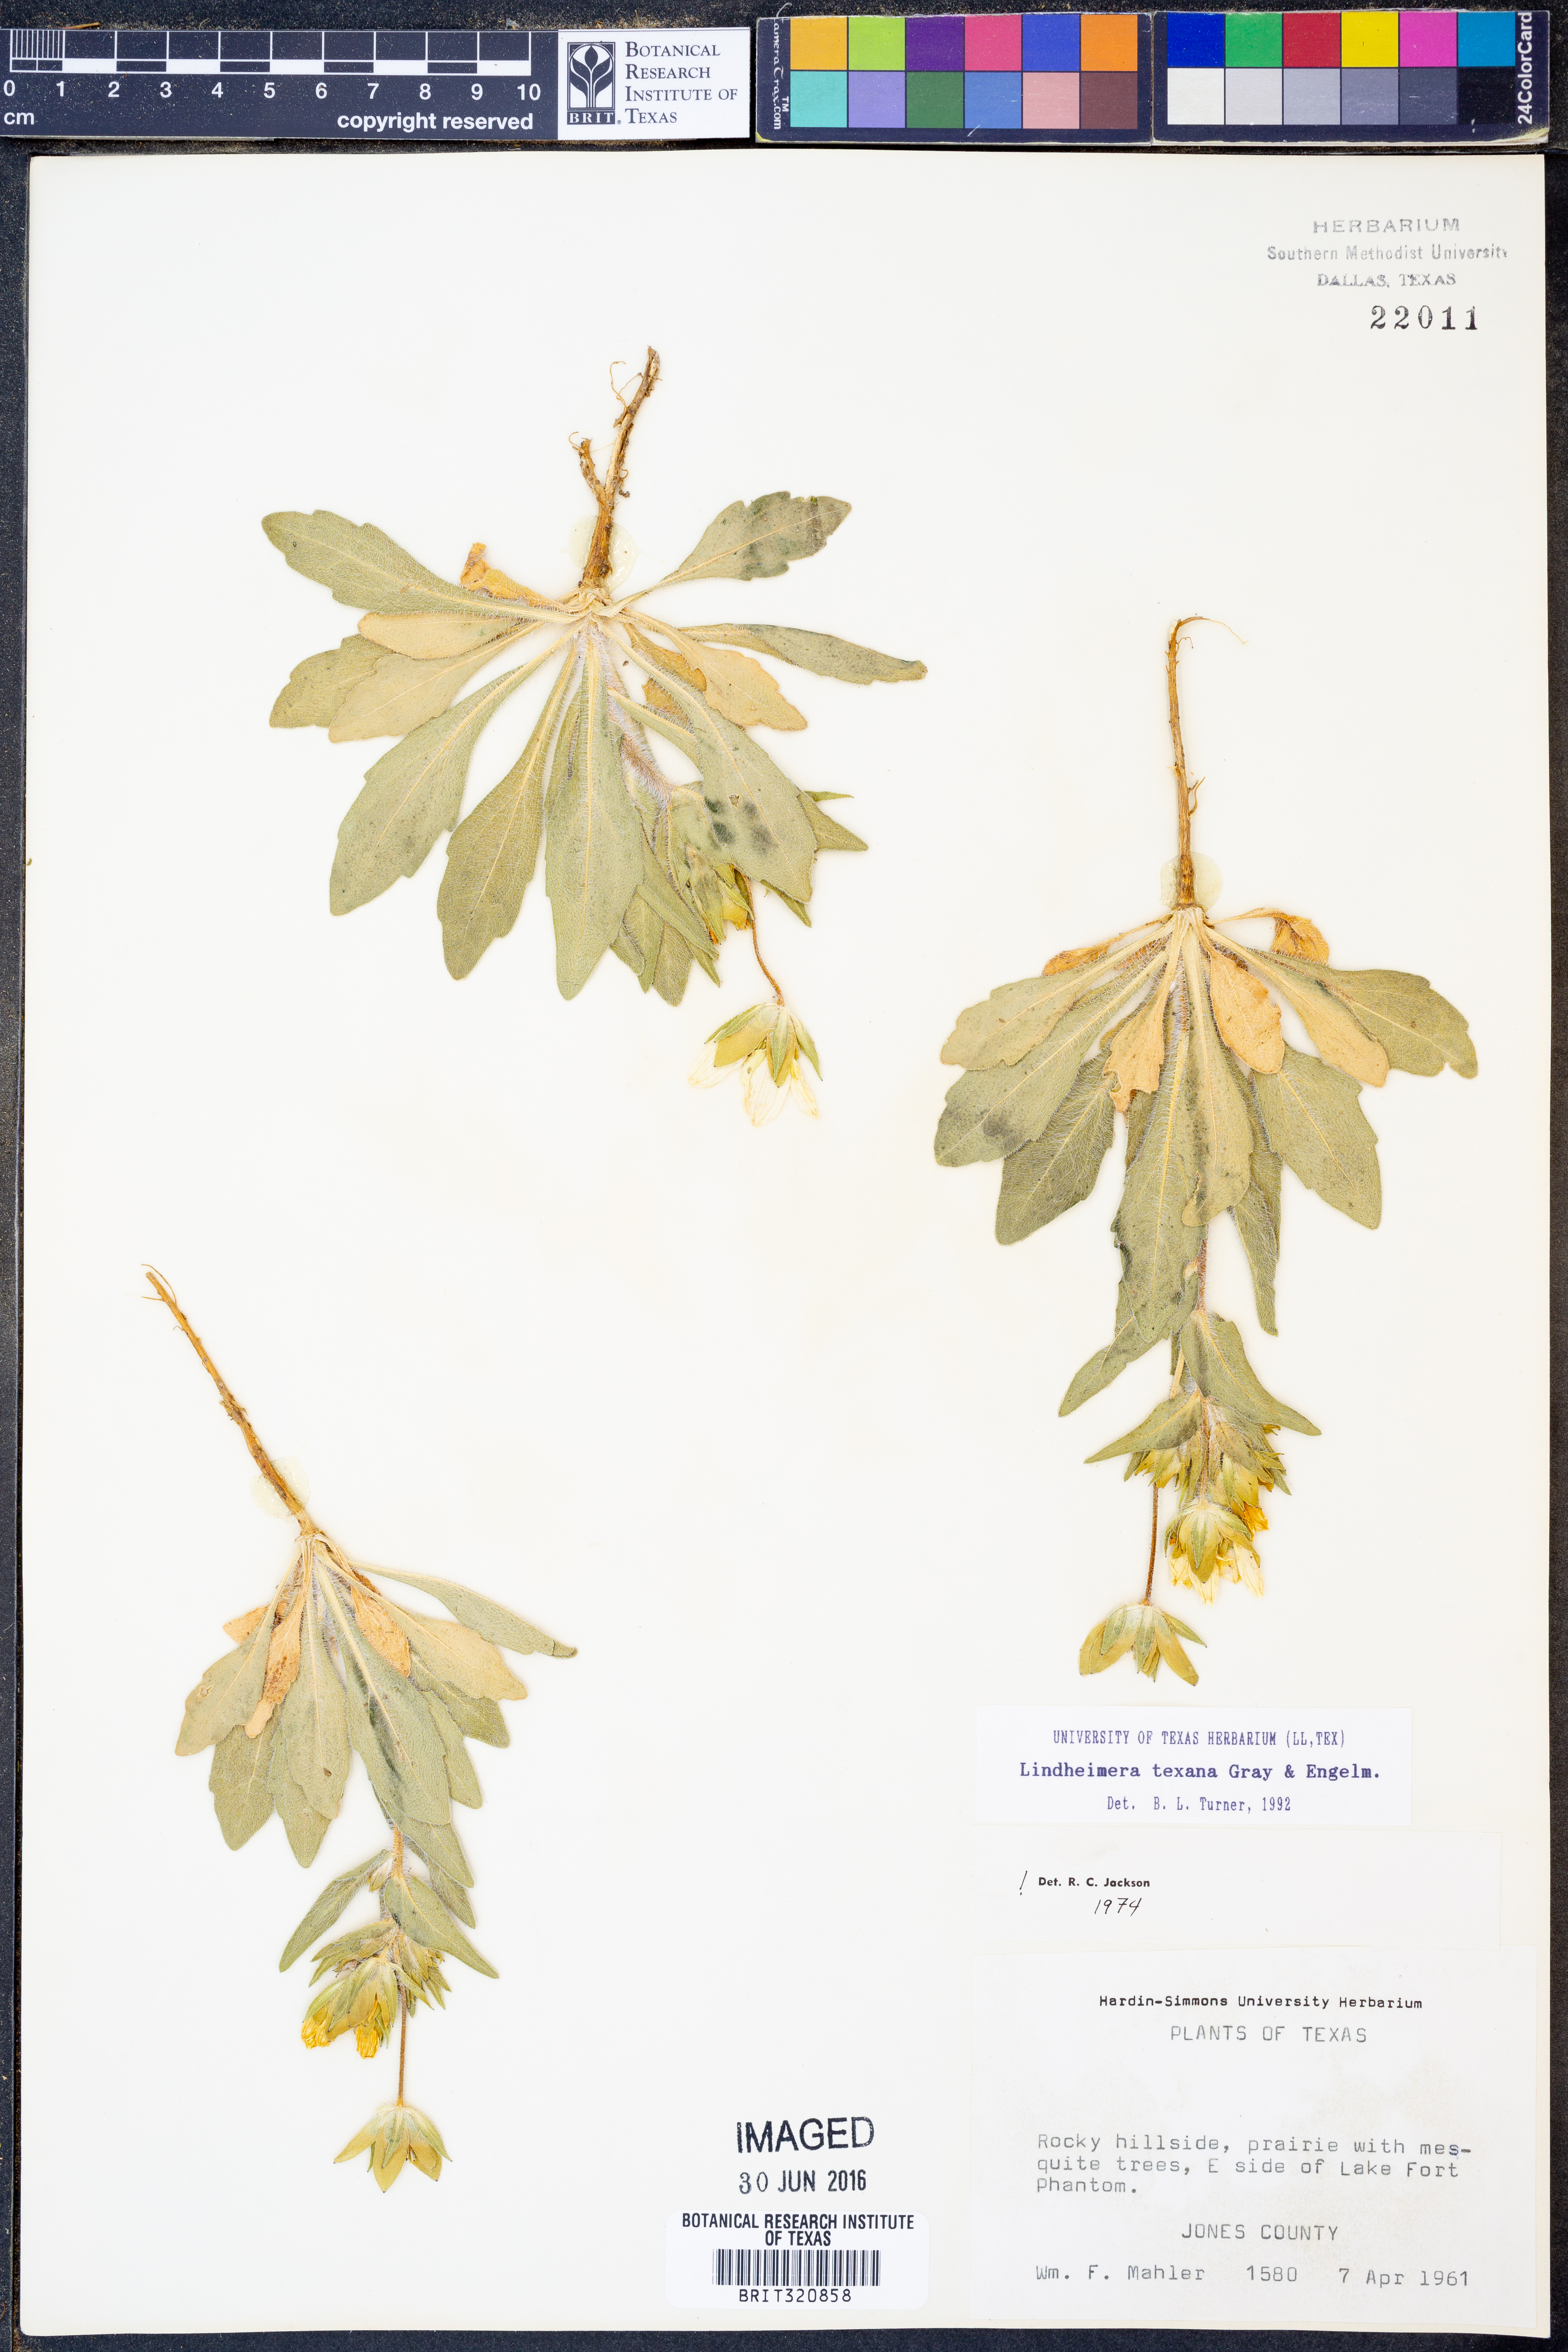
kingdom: Plantae
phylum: Tracheophyta
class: Magnoliopsida
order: Asterales
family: Asteraceae
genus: Lindheimera
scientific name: Lindheimera texana
